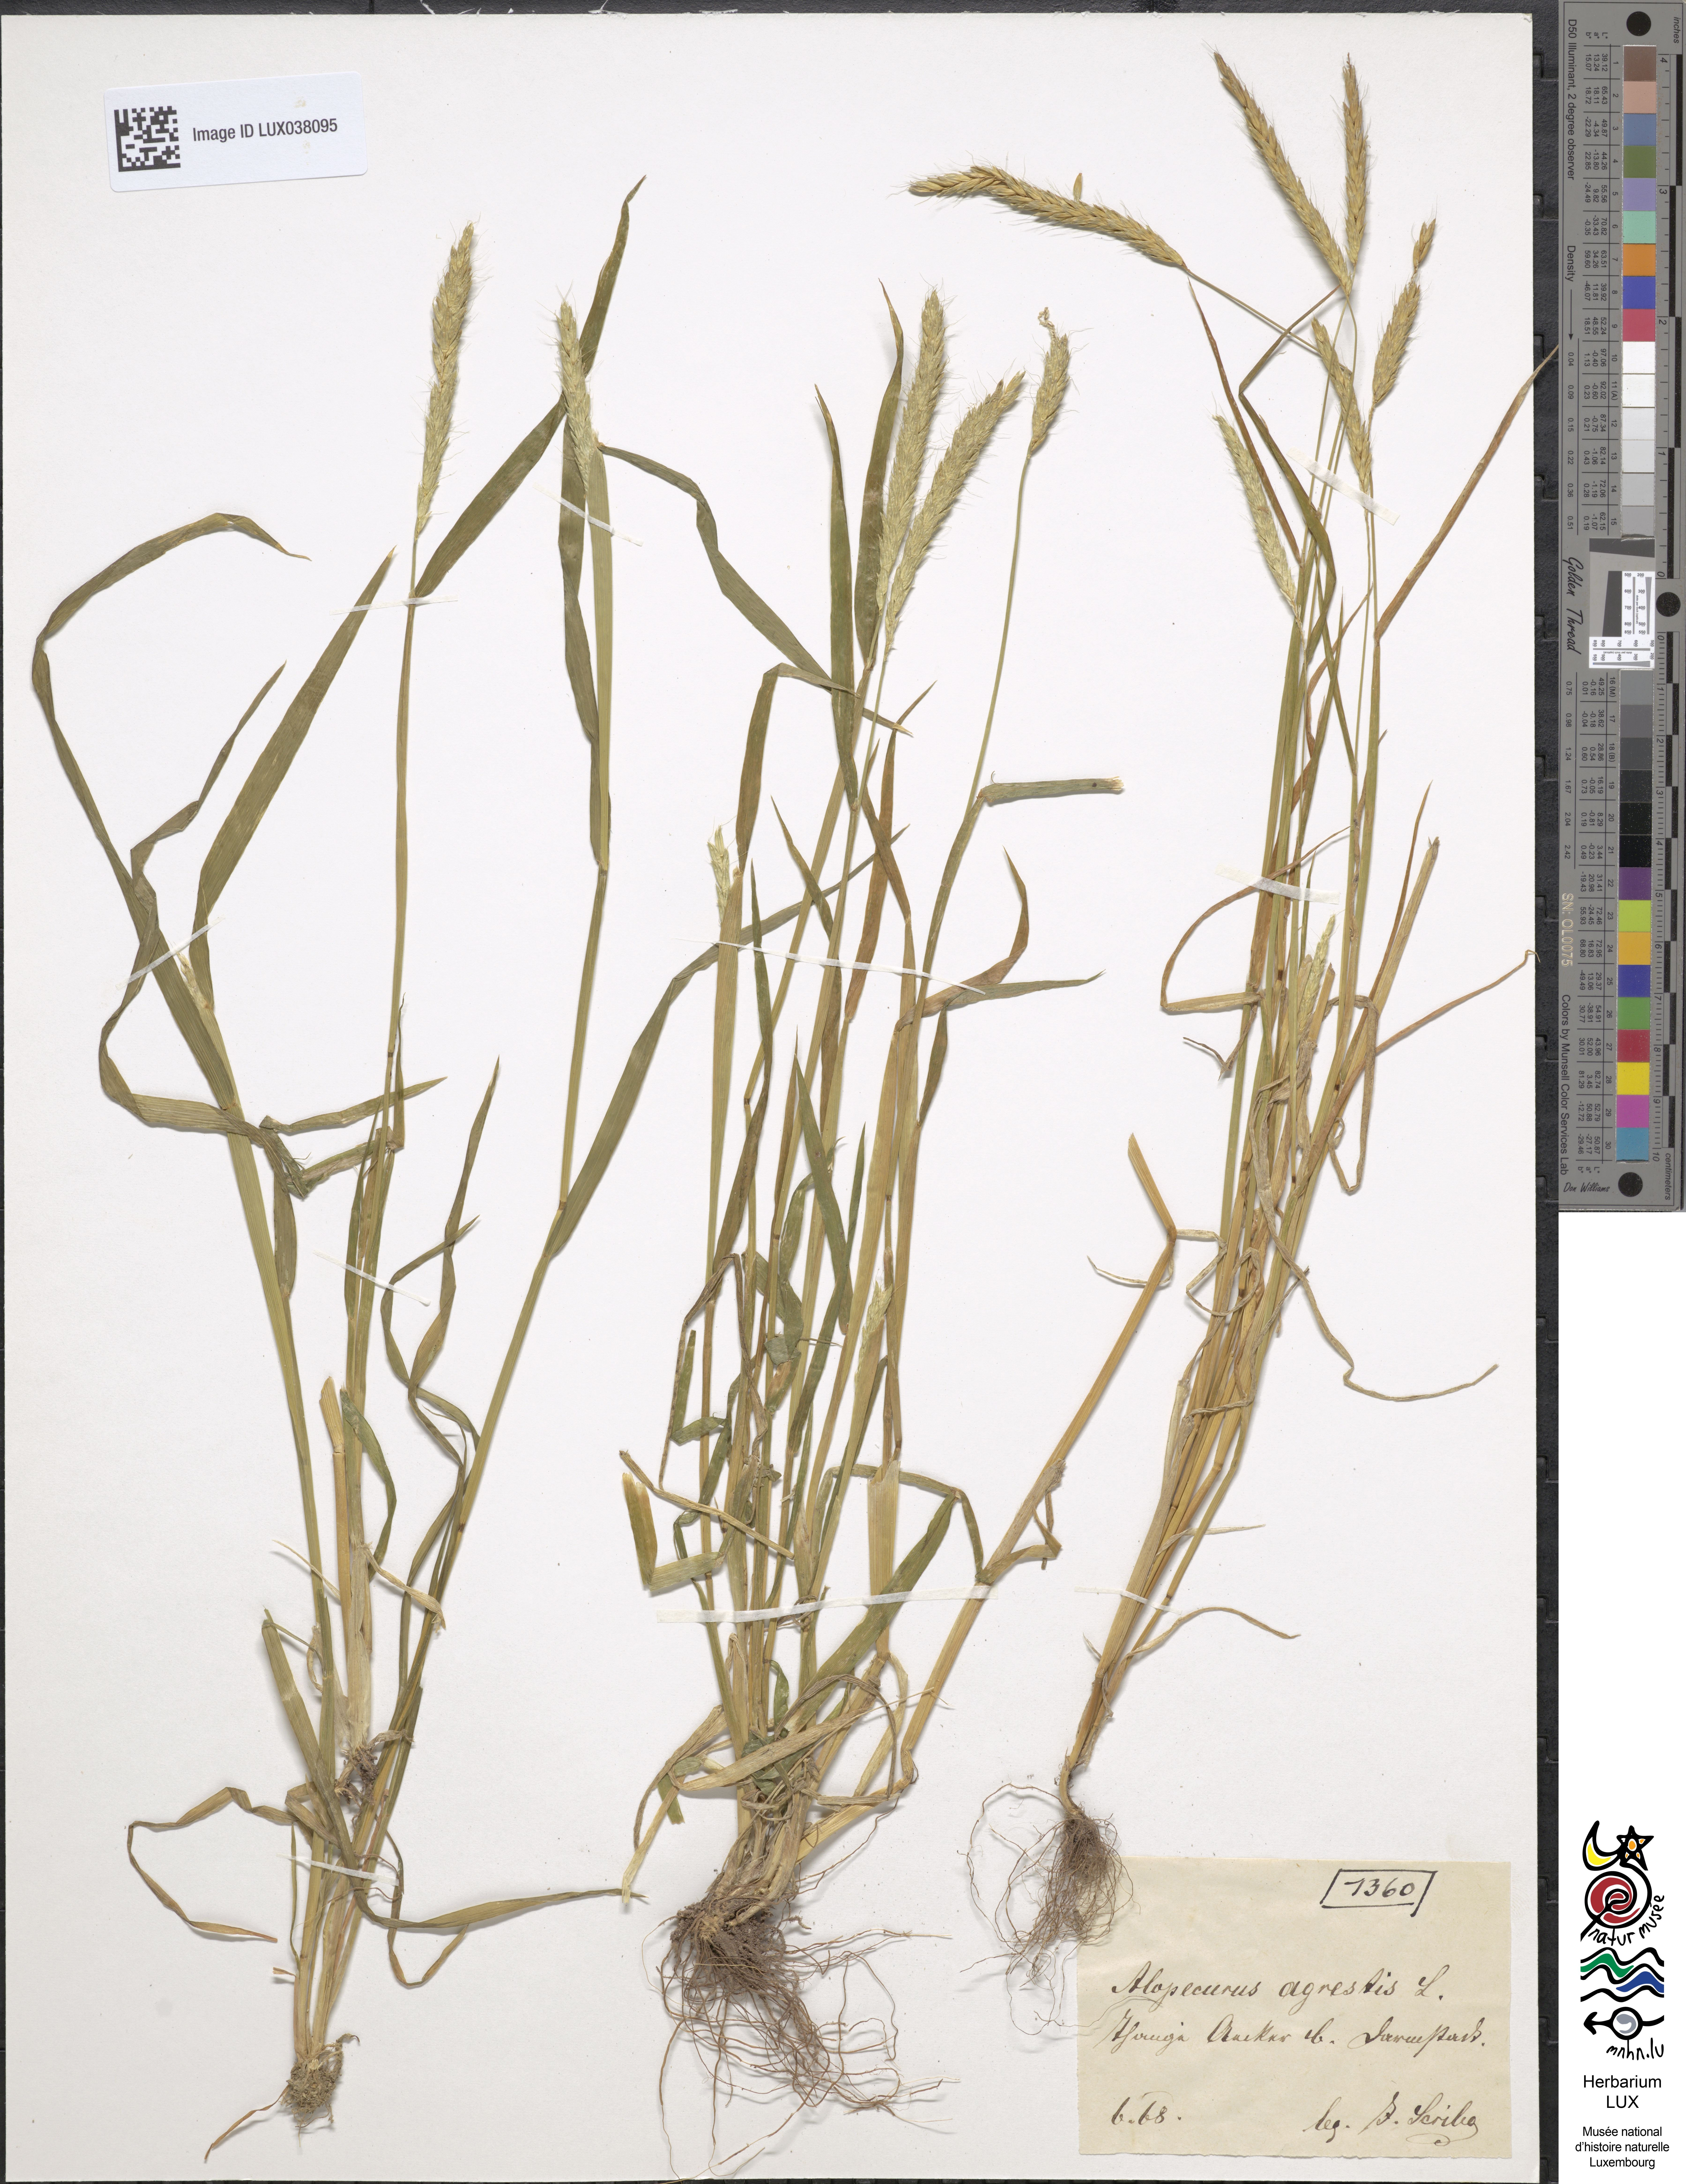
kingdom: Plantae
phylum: Tracheophyta
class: Liliopsida
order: Poales
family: Poaceae
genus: Alopecurus
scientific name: Alopecurus myosuroides
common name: Black-grass
